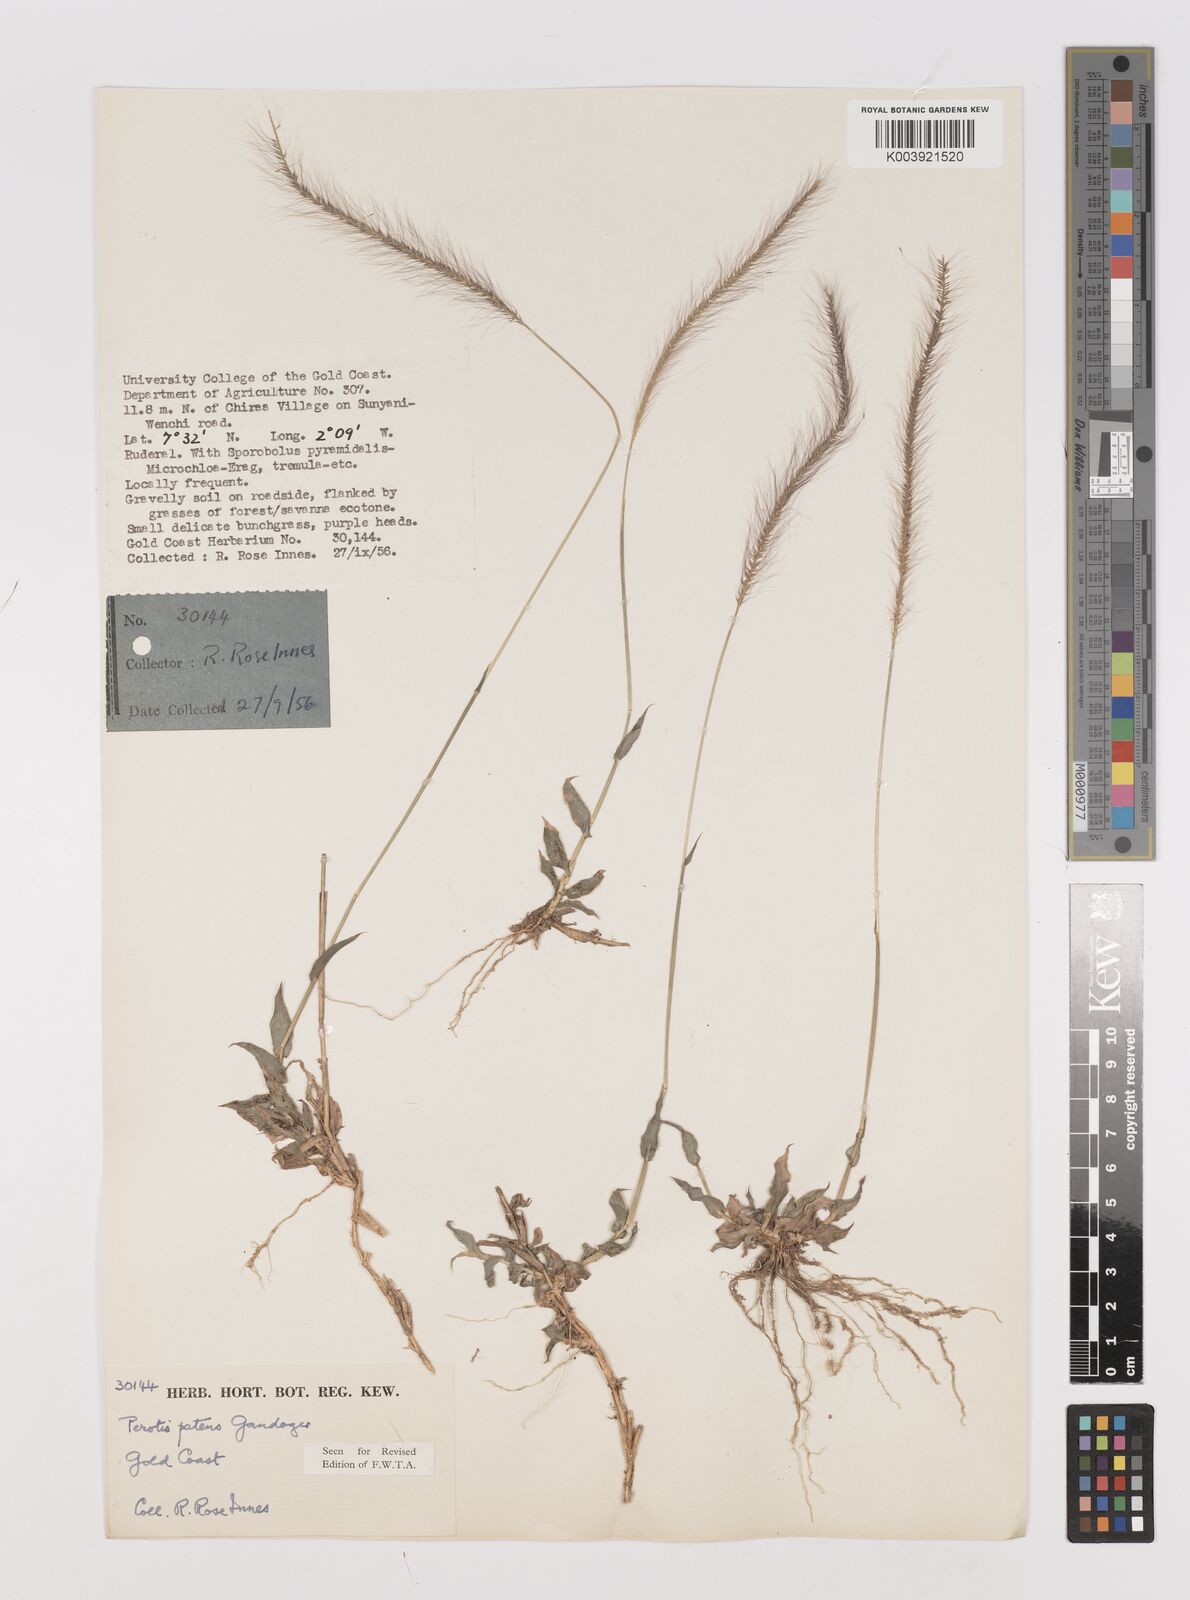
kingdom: Plantae
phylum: Tracheophyta
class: Liliopsida
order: Poales
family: Poaceae
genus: Perotis
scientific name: Perotis patens
